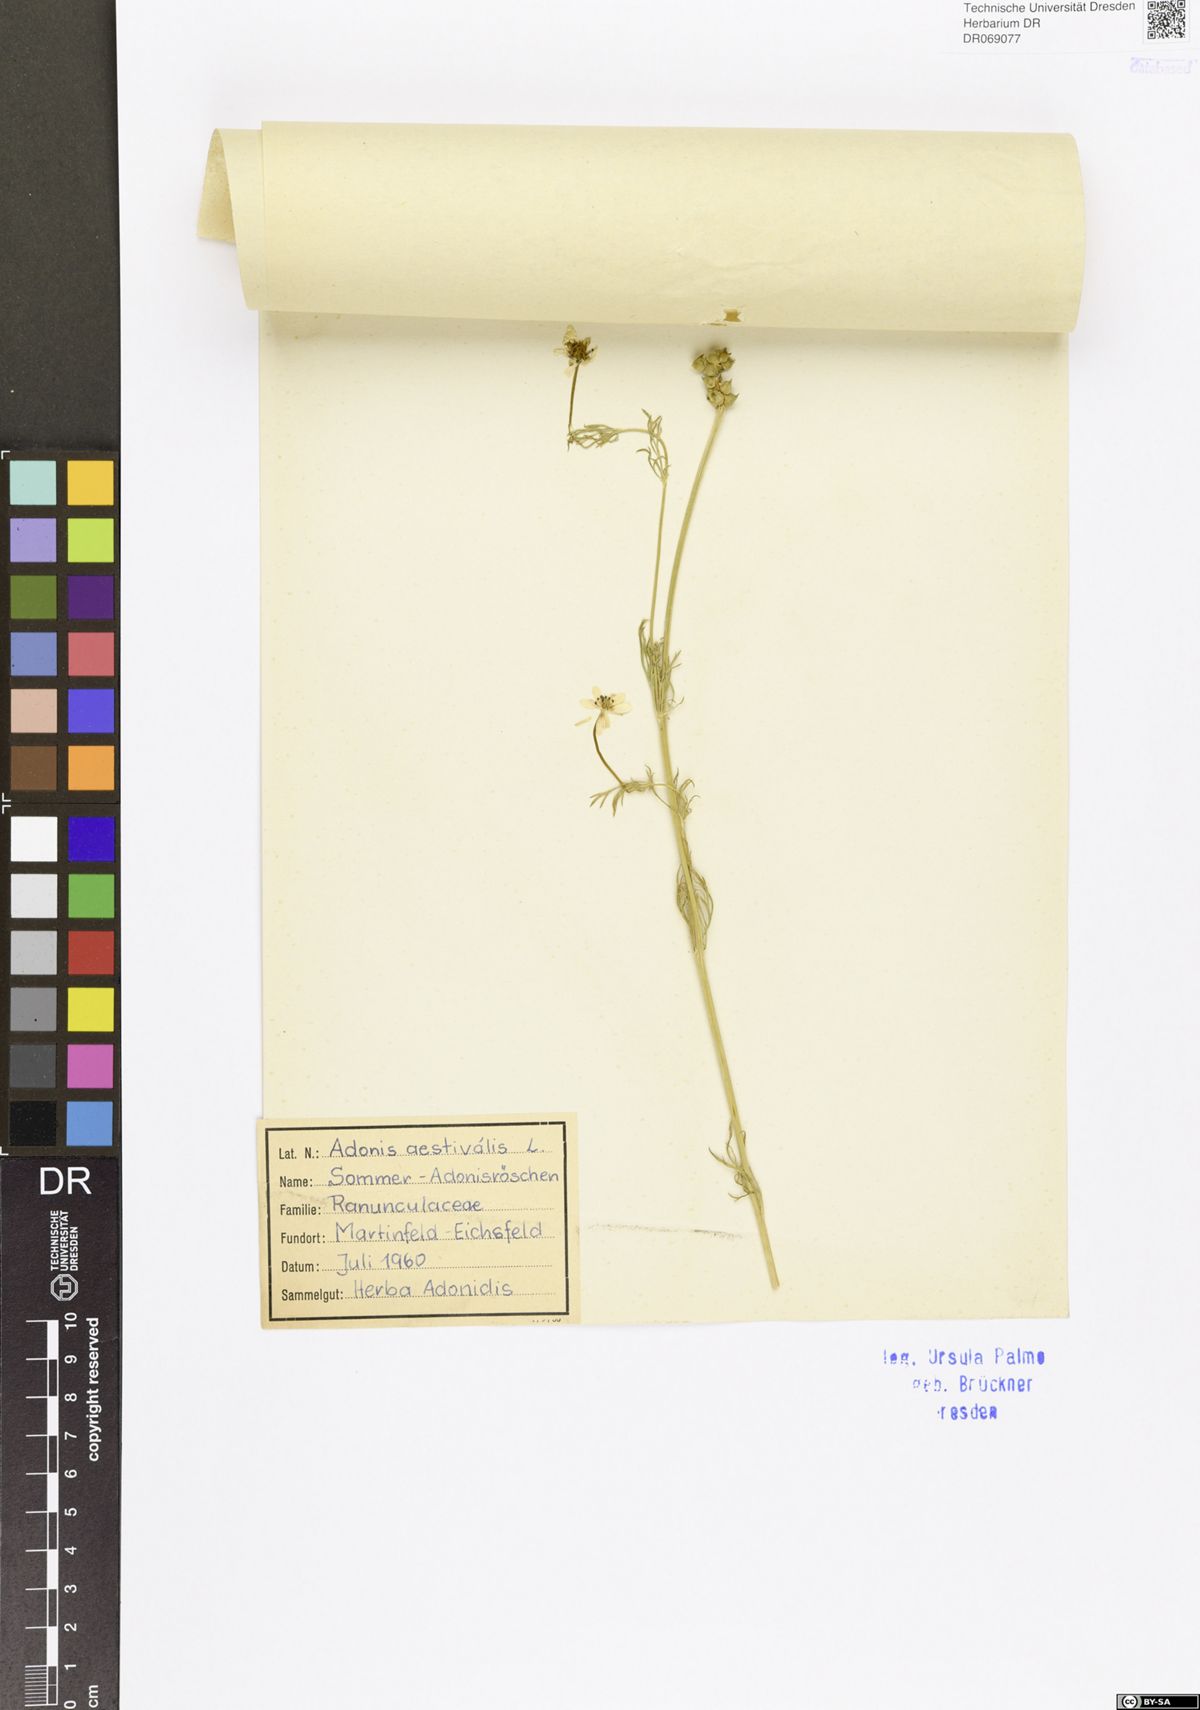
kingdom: Plantae
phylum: Tracheophyta
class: Magnoliopsida
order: Ranunculales
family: Ranunculaceae
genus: Adonis
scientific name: Adonis aestivalis
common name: Summer pheasant's-eye
